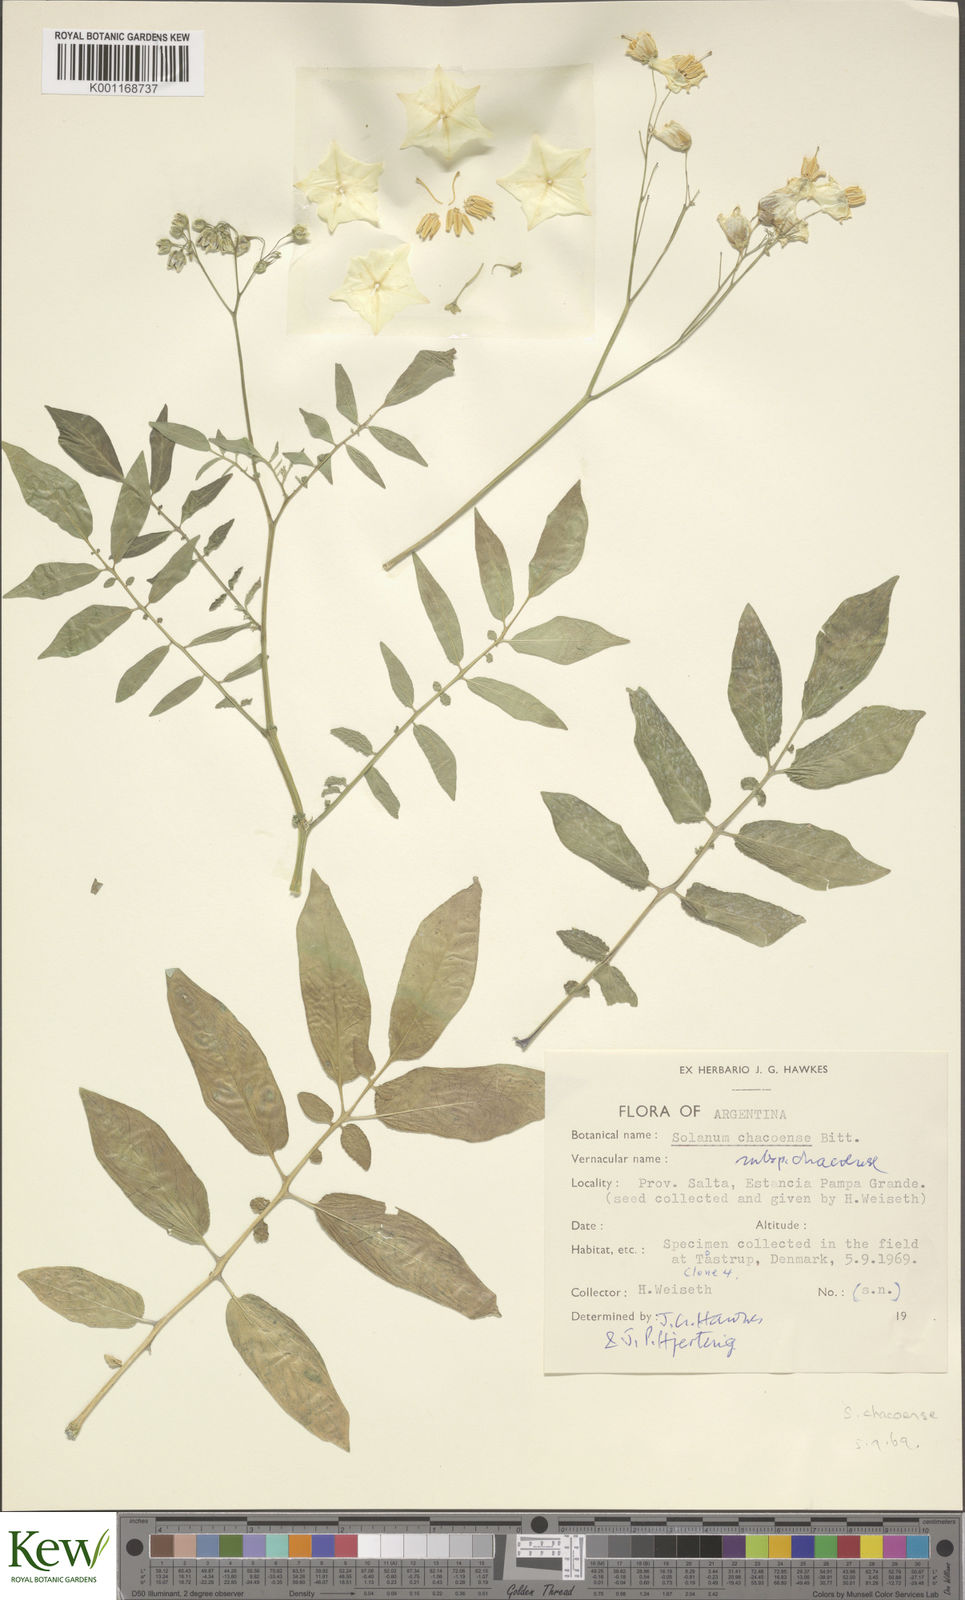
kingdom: Plantae
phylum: Tracheophyta
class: Magnoliopsida
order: Solanales
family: Solanaceae
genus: Solanum
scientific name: Solanum chacoense
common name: Chaco potato
